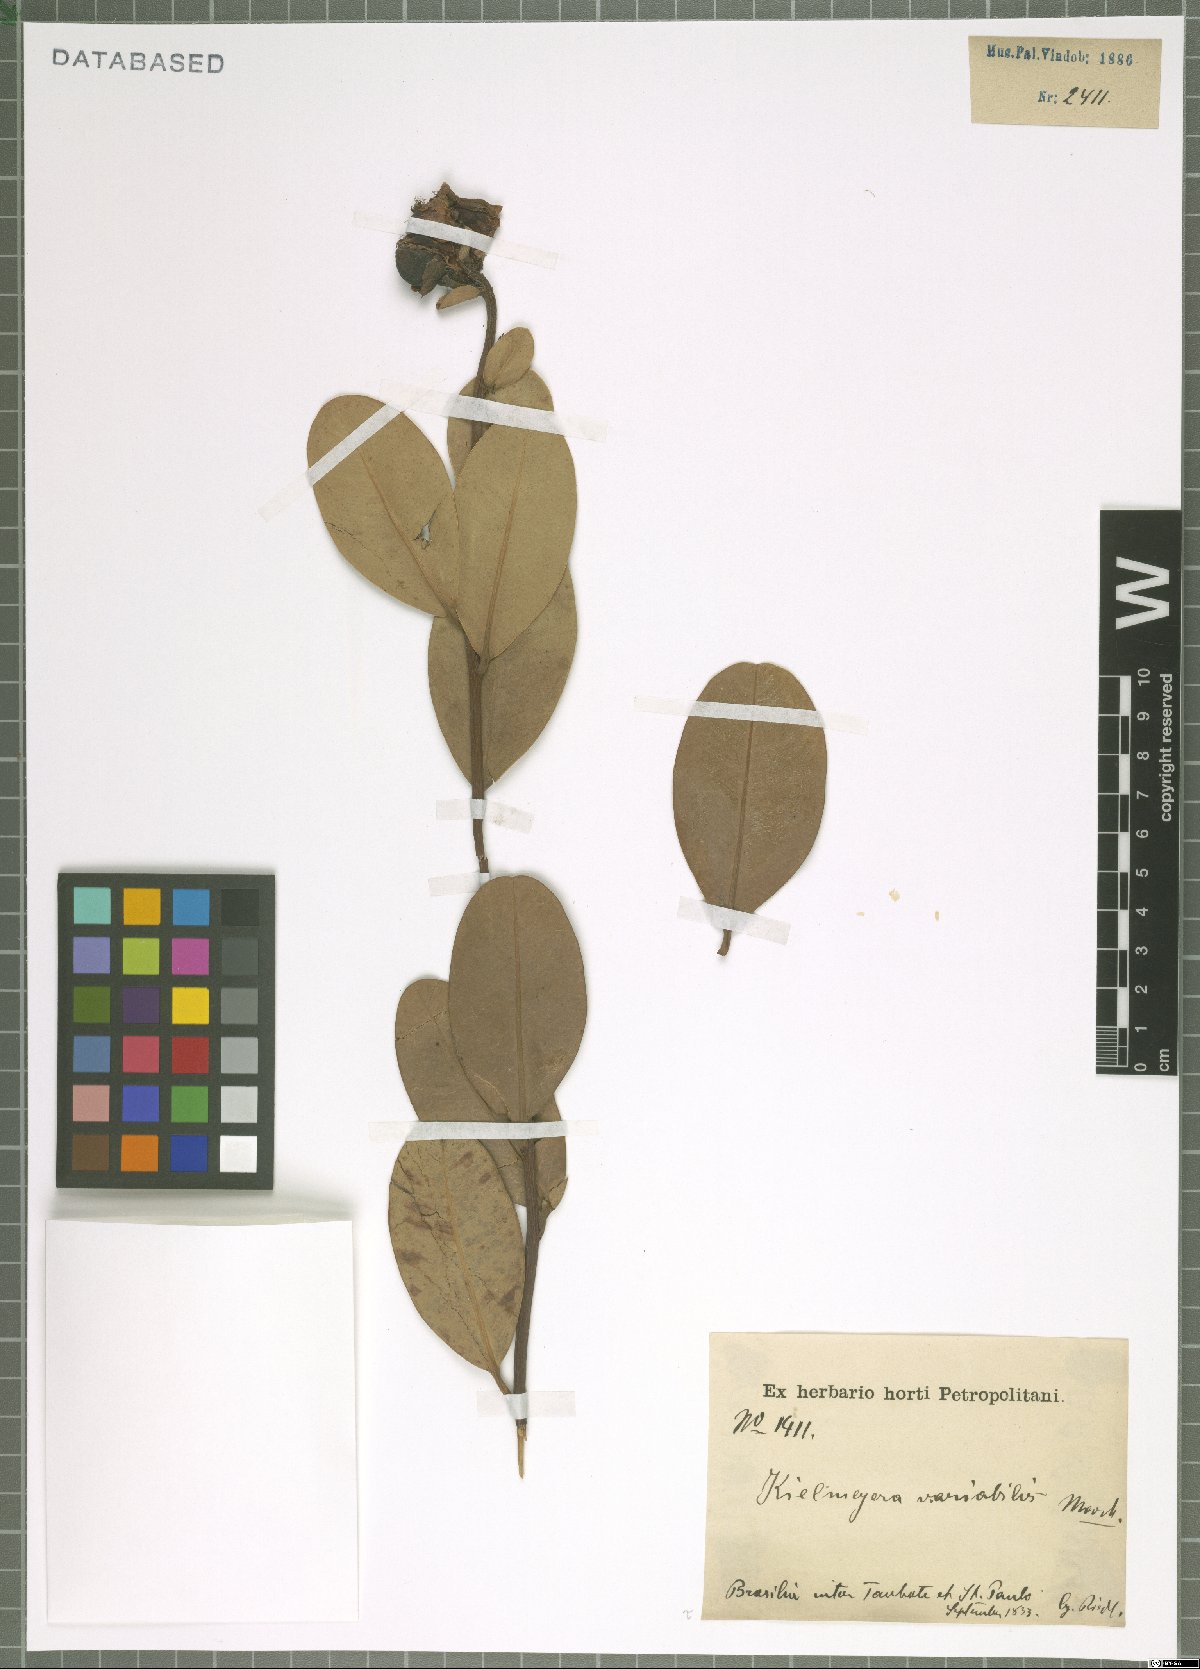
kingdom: Plantae
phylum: Tracheophyta
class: Magnoliopsida
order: Malpighiales
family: Calophyllaceae
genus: Kielmeyera
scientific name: Kielmeyera variabilis
